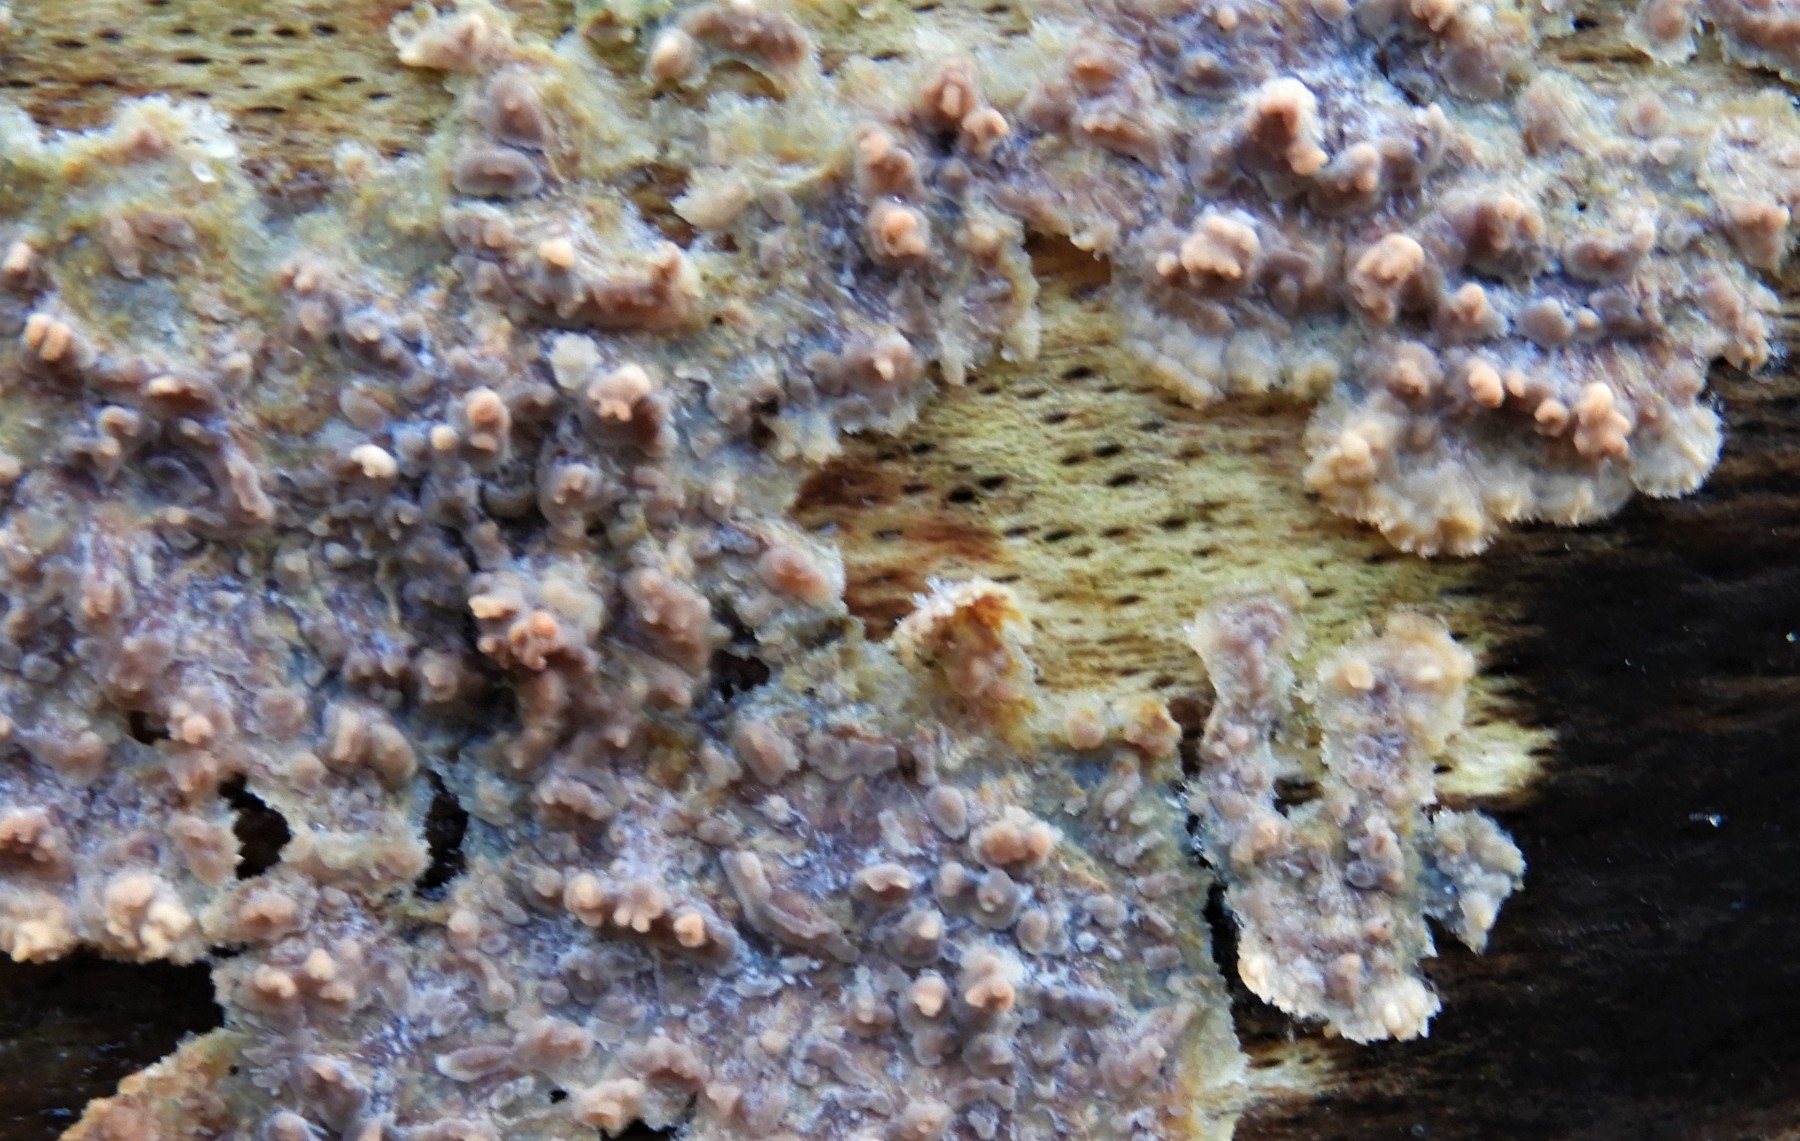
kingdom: Fungi
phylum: Basidiomycota
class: Agaricomycetes
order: Polyporales
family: Meruliaceae
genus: Phlebia
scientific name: Phlebia radiata
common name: stråle-åresvamp
